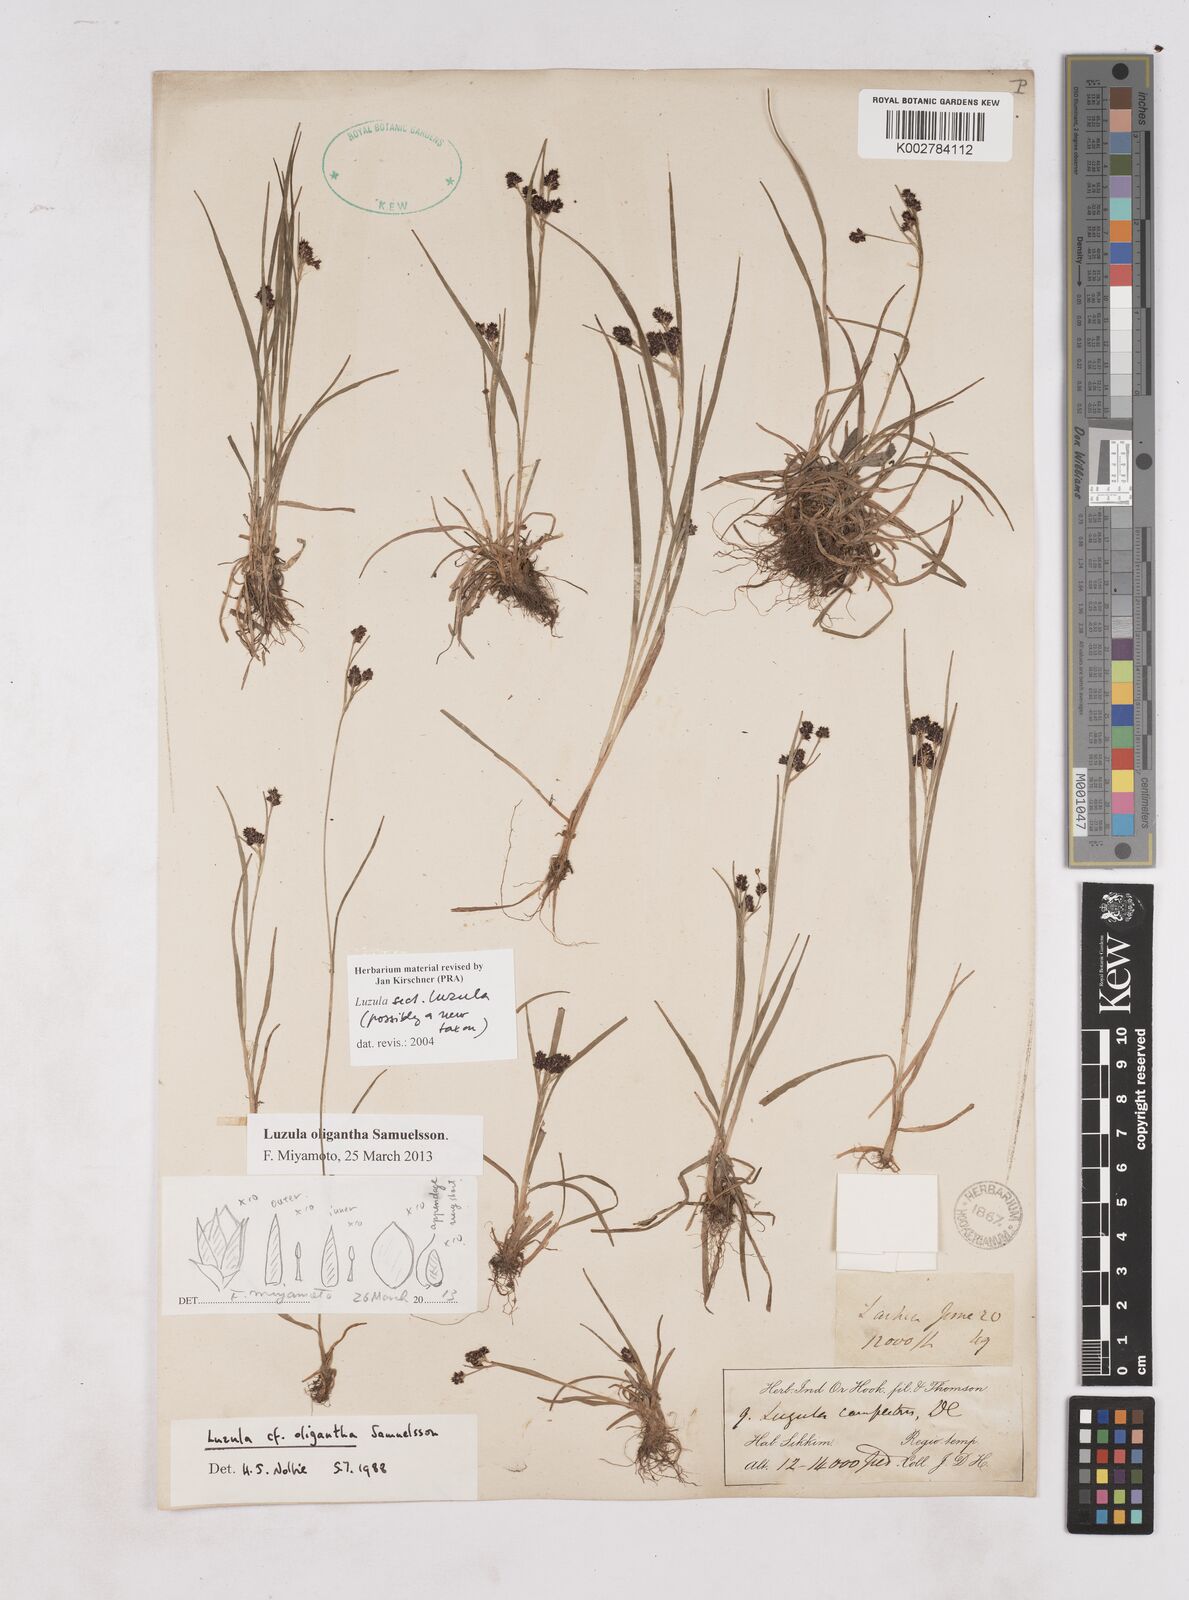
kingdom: Plantae
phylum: Tracheophyta
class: Liliopsida
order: Poales
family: Juncaceae
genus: Luzula
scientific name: Luzula
